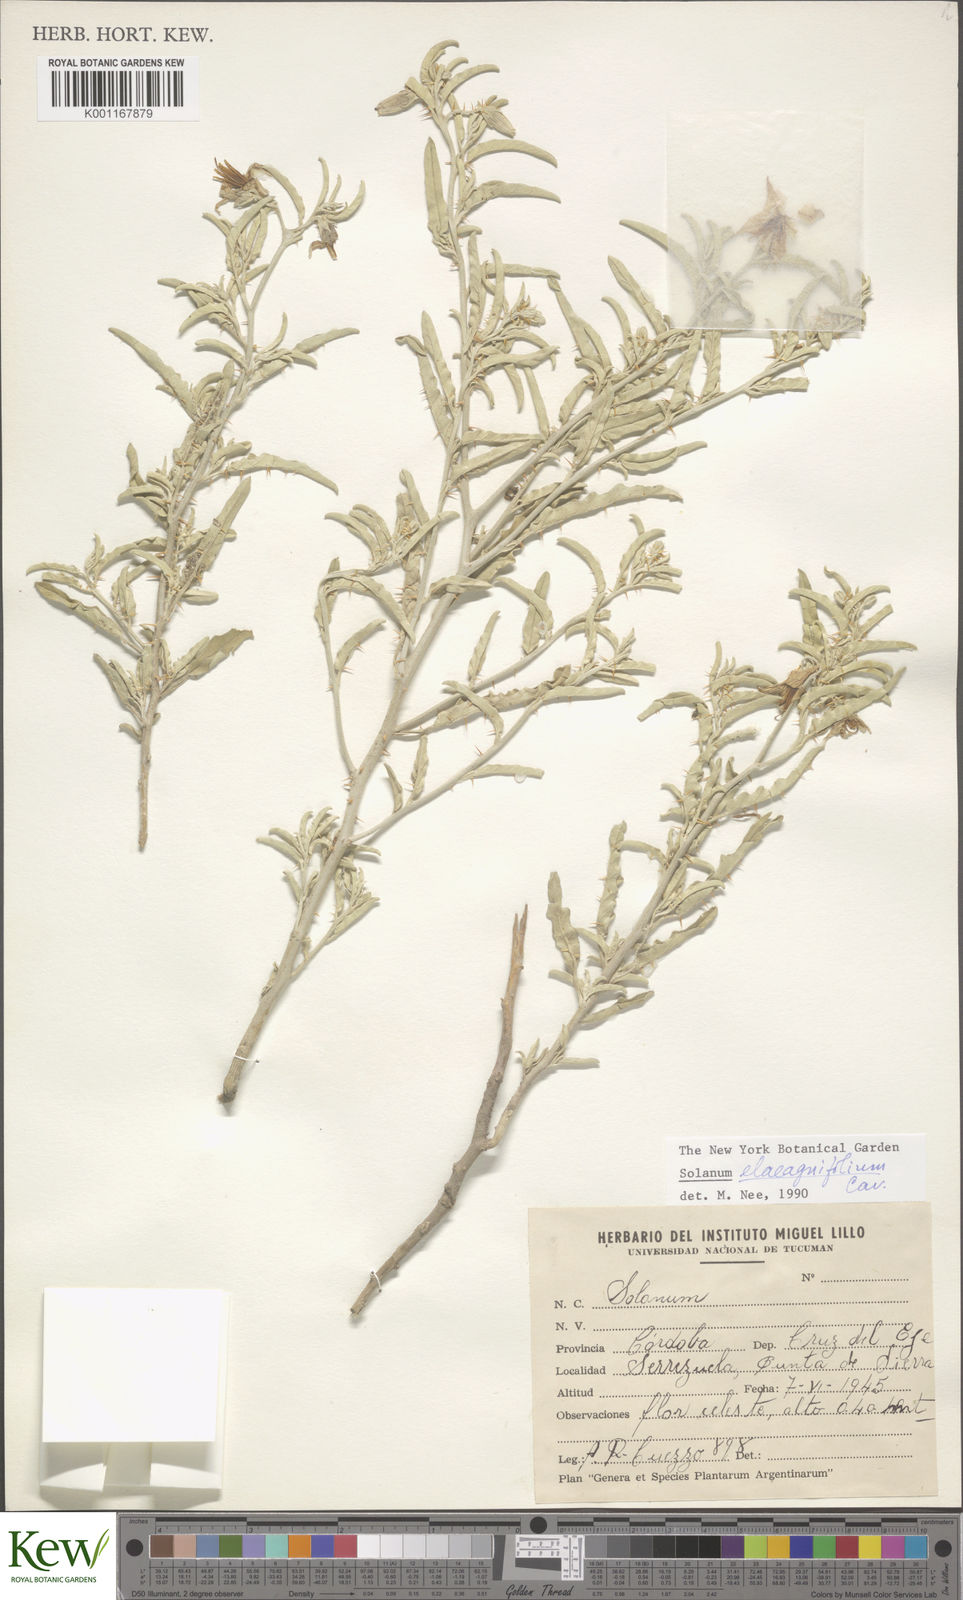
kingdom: Plantae
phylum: Tracheophyta
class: Magnoliopsida
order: Solanales
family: Solanaceae
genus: Solanum
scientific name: Solanum elaeagnifolium
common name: Silverleaf nightshade
